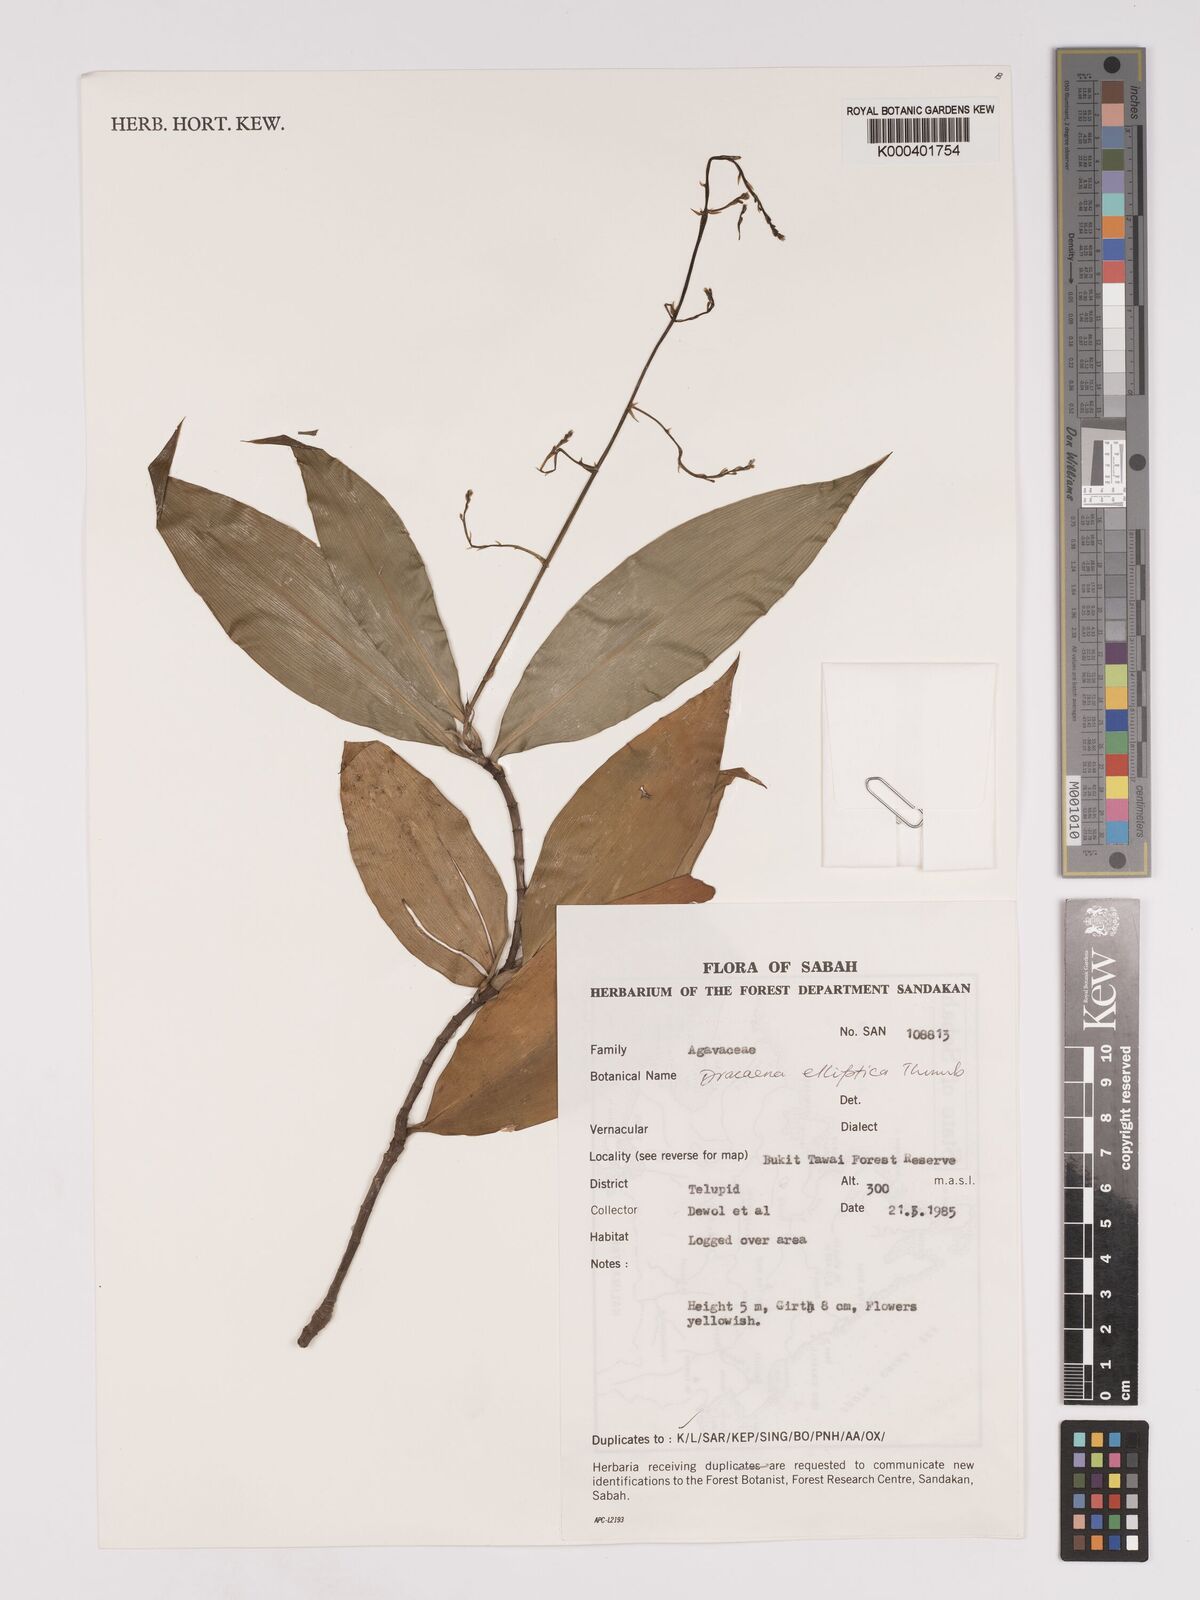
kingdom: Plantae
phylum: Tracheophyta
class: Liliopsida
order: Asparagales
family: Asparagaceae
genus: Dracaena
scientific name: Dracaena elliptica
